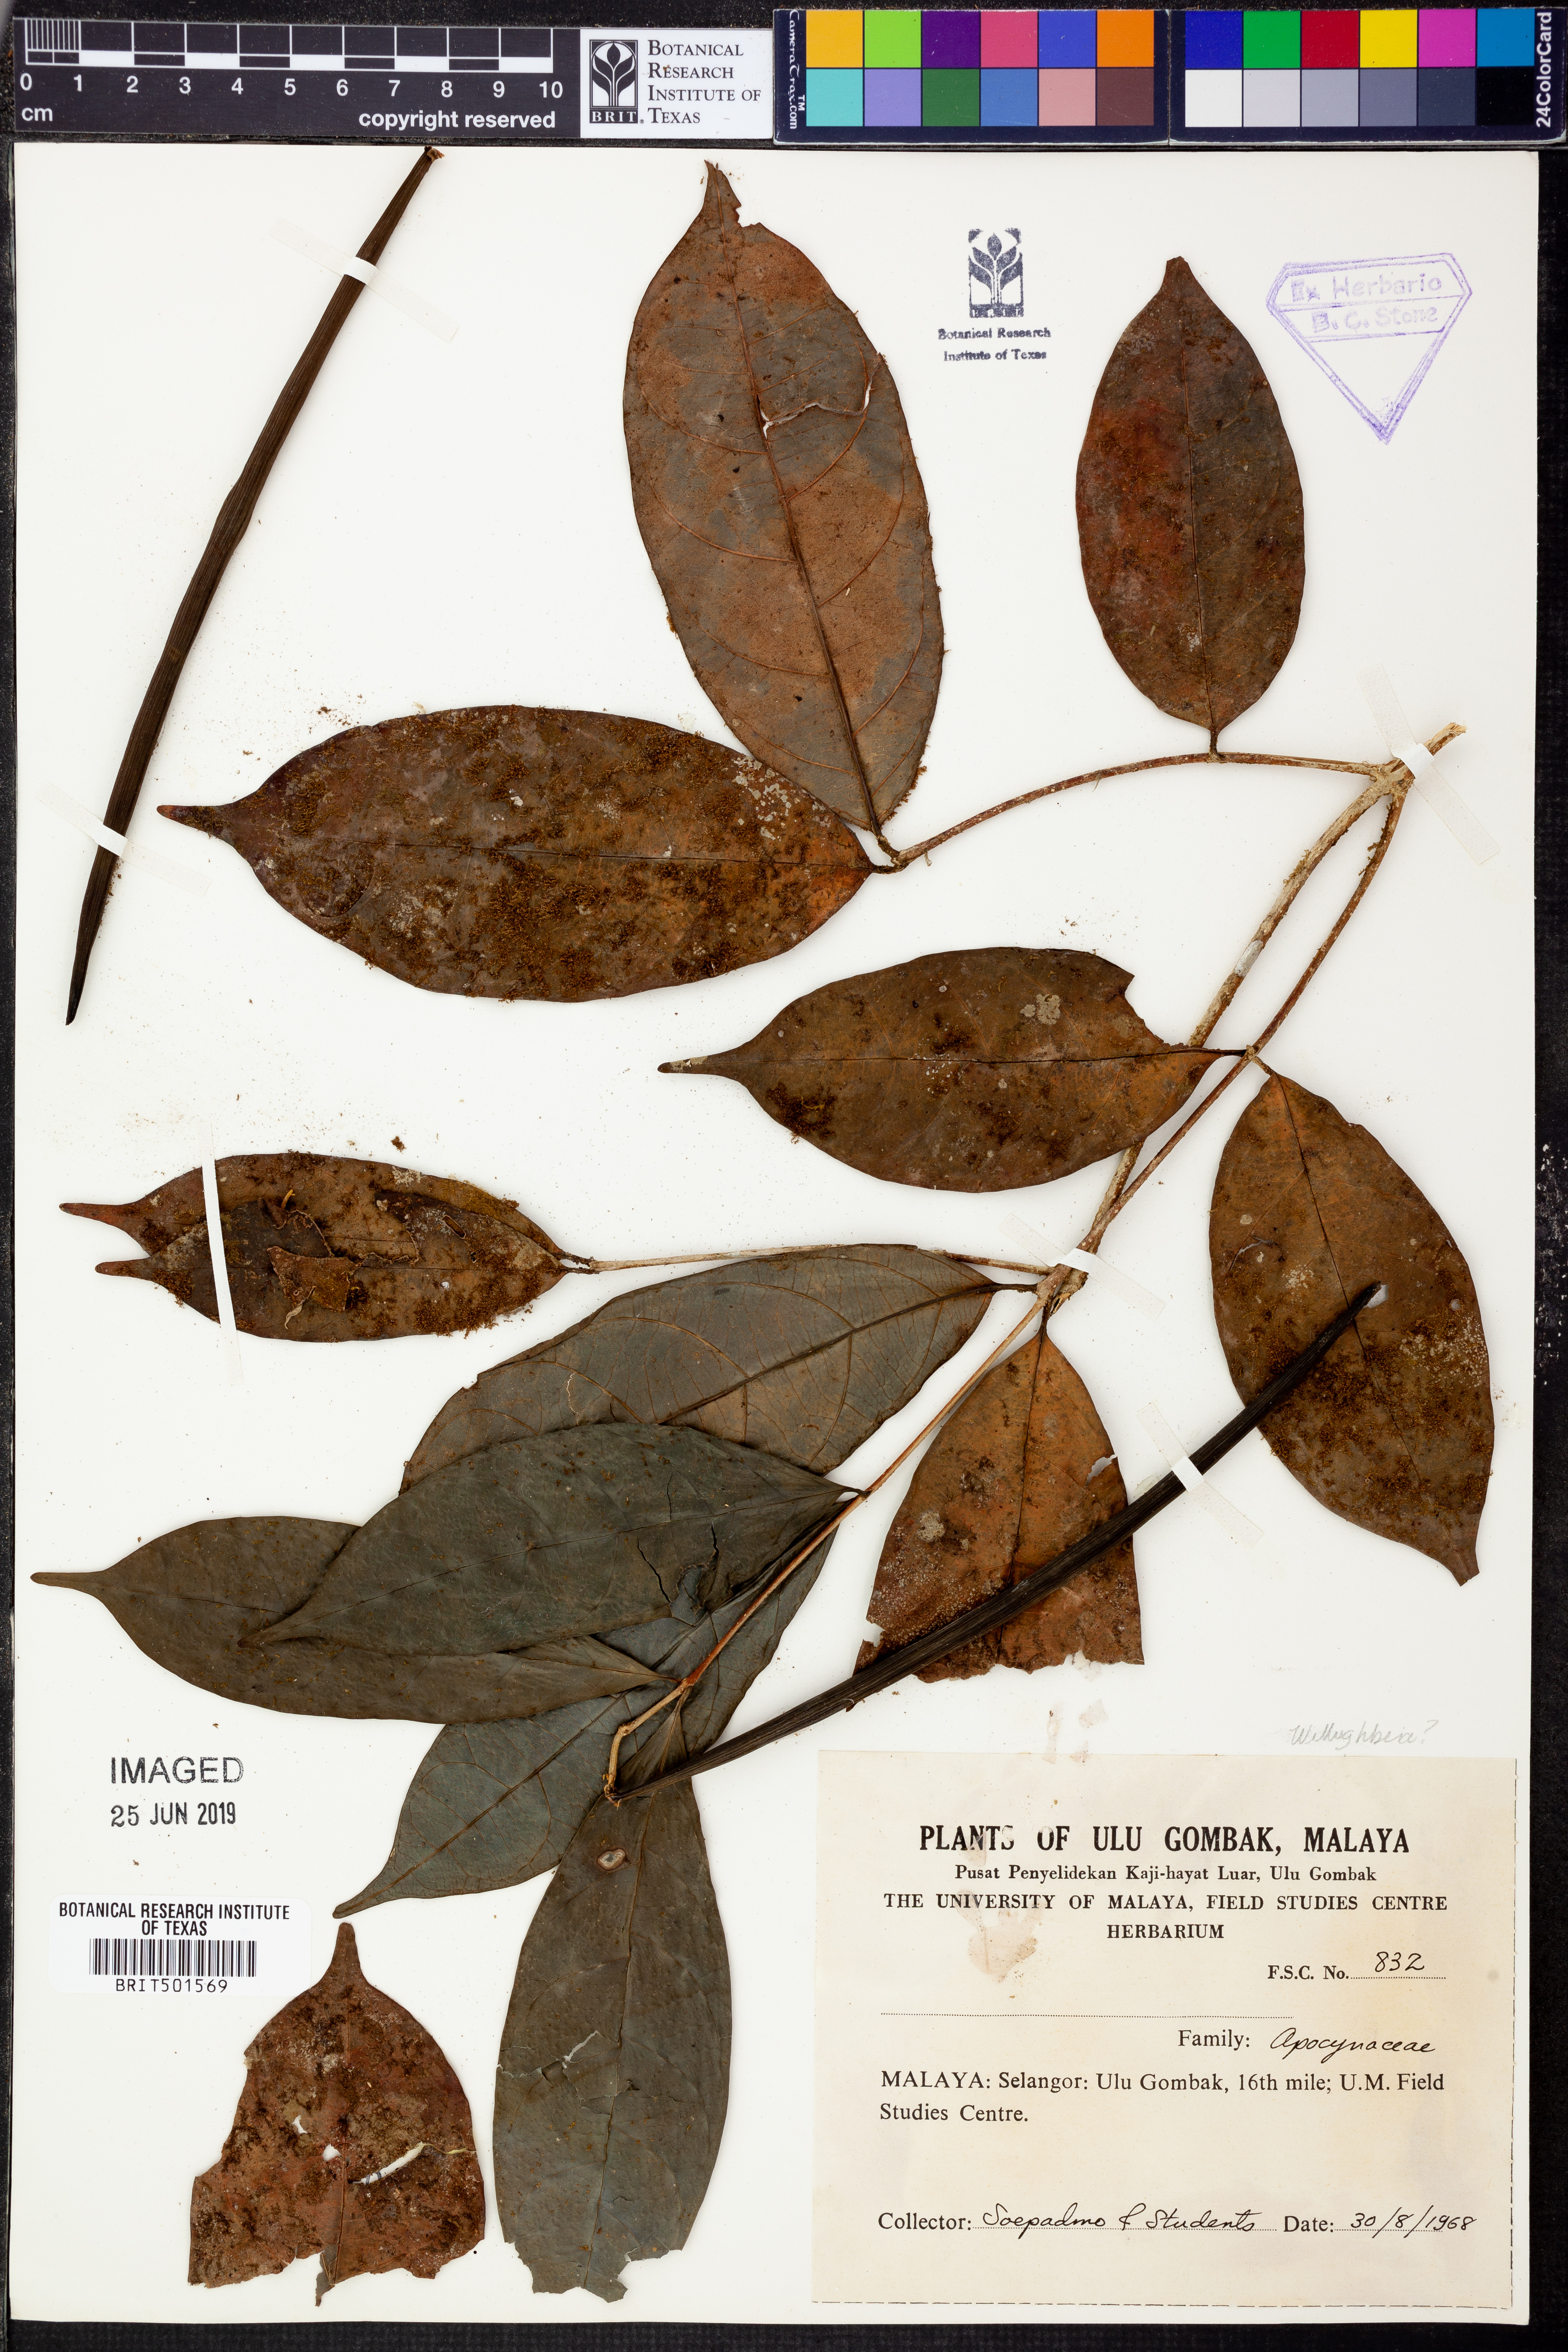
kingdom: Plantae
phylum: Tracheophyta
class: Magnoliopsida
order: Gentianales
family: Apocynaceae
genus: Willughbeia
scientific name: Willughbeia
